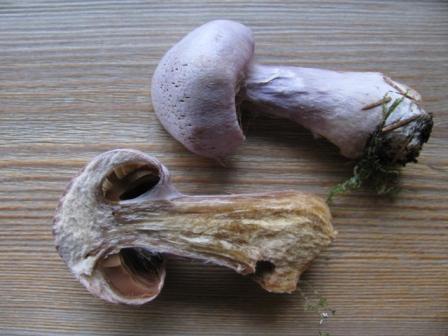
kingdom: Fungi
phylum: Basidiomycota
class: Agaricomycetes
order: Agaricales
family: Cortinariaceae
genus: Cortinarius
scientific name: Cortinarius alboviolaceus
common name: lysviolet slørhat
